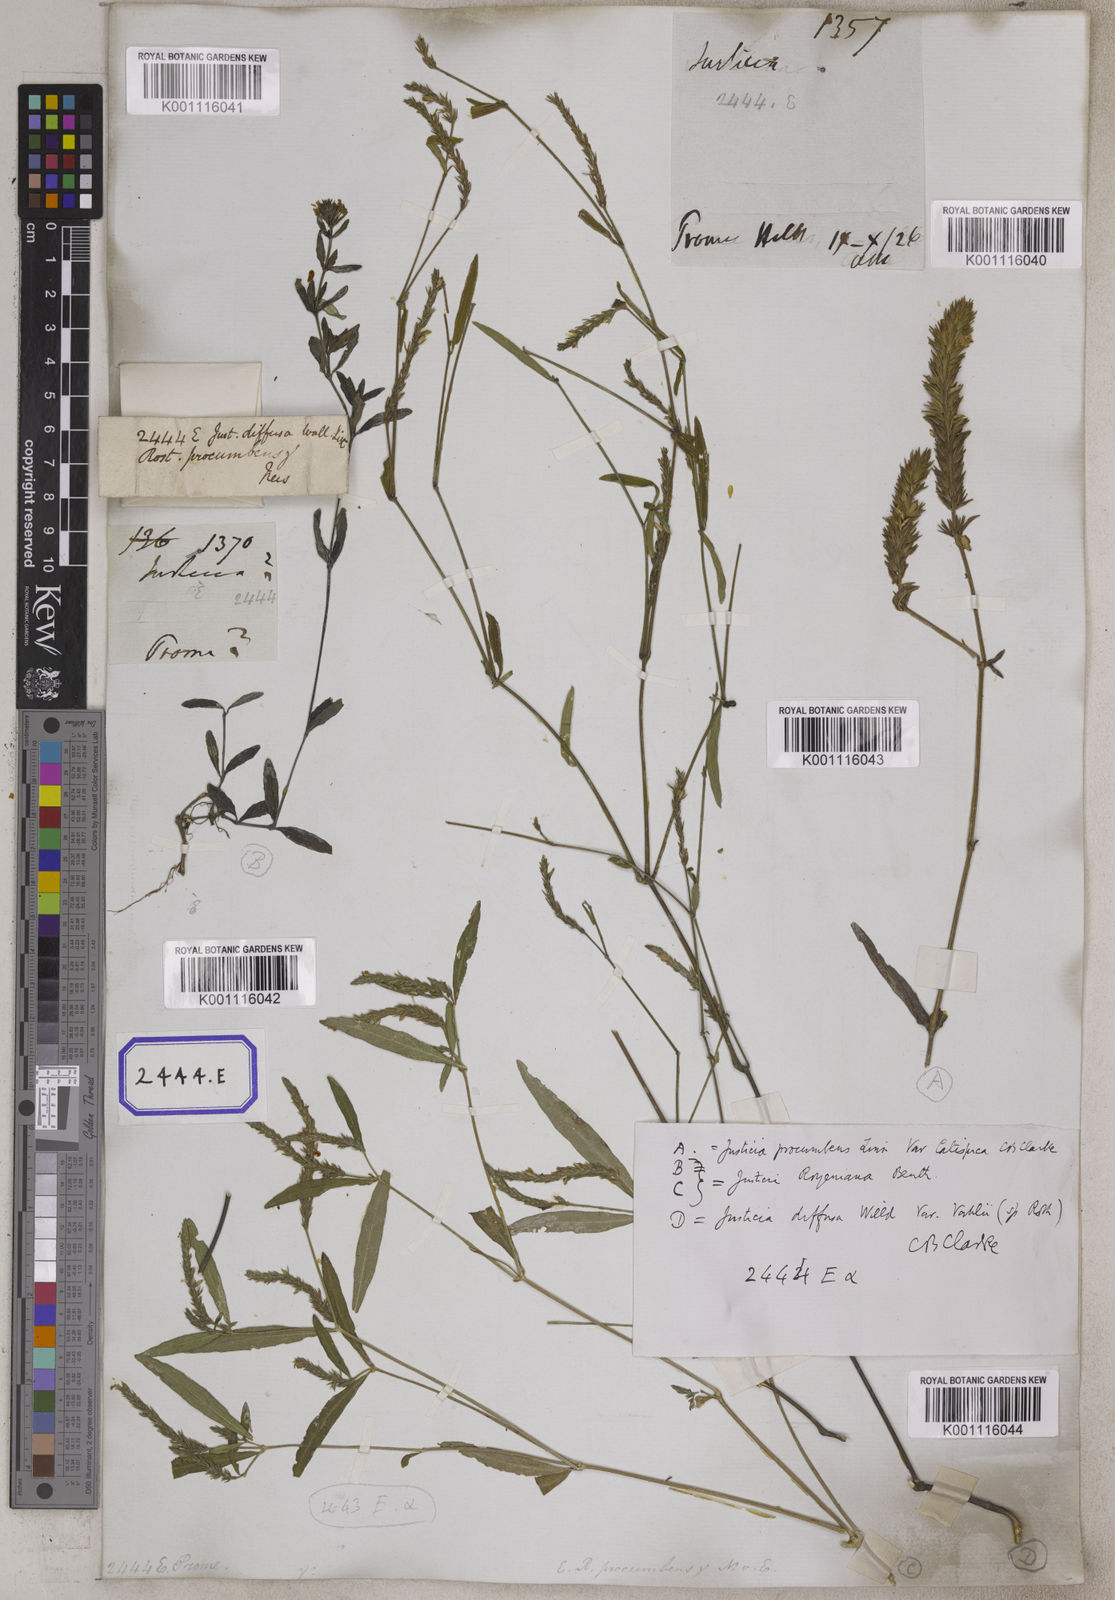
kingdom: Plantae
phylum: Tracheophyta
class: Magnoliopsida
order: Lamiales
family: Acanthaceae
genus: Justicia
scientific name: Justicia
